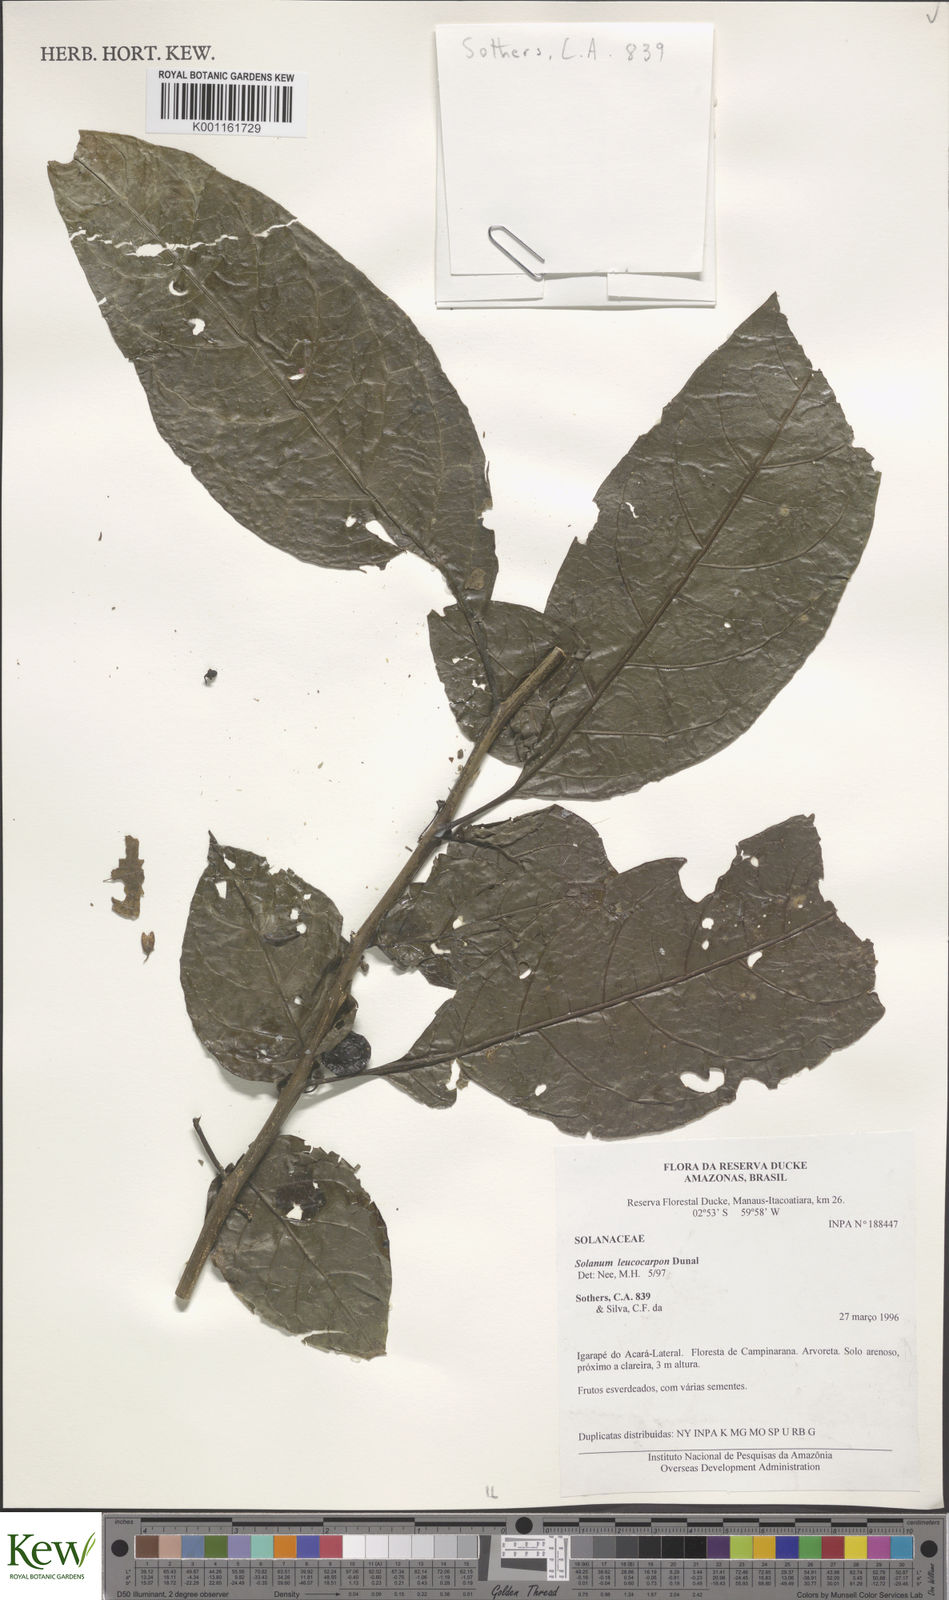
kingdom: Plantae
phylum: Tracheophyta
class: Magnoliopsida
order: Solanales
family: Solanaceae
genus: Solanum
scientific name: Solanum leucocarpon
